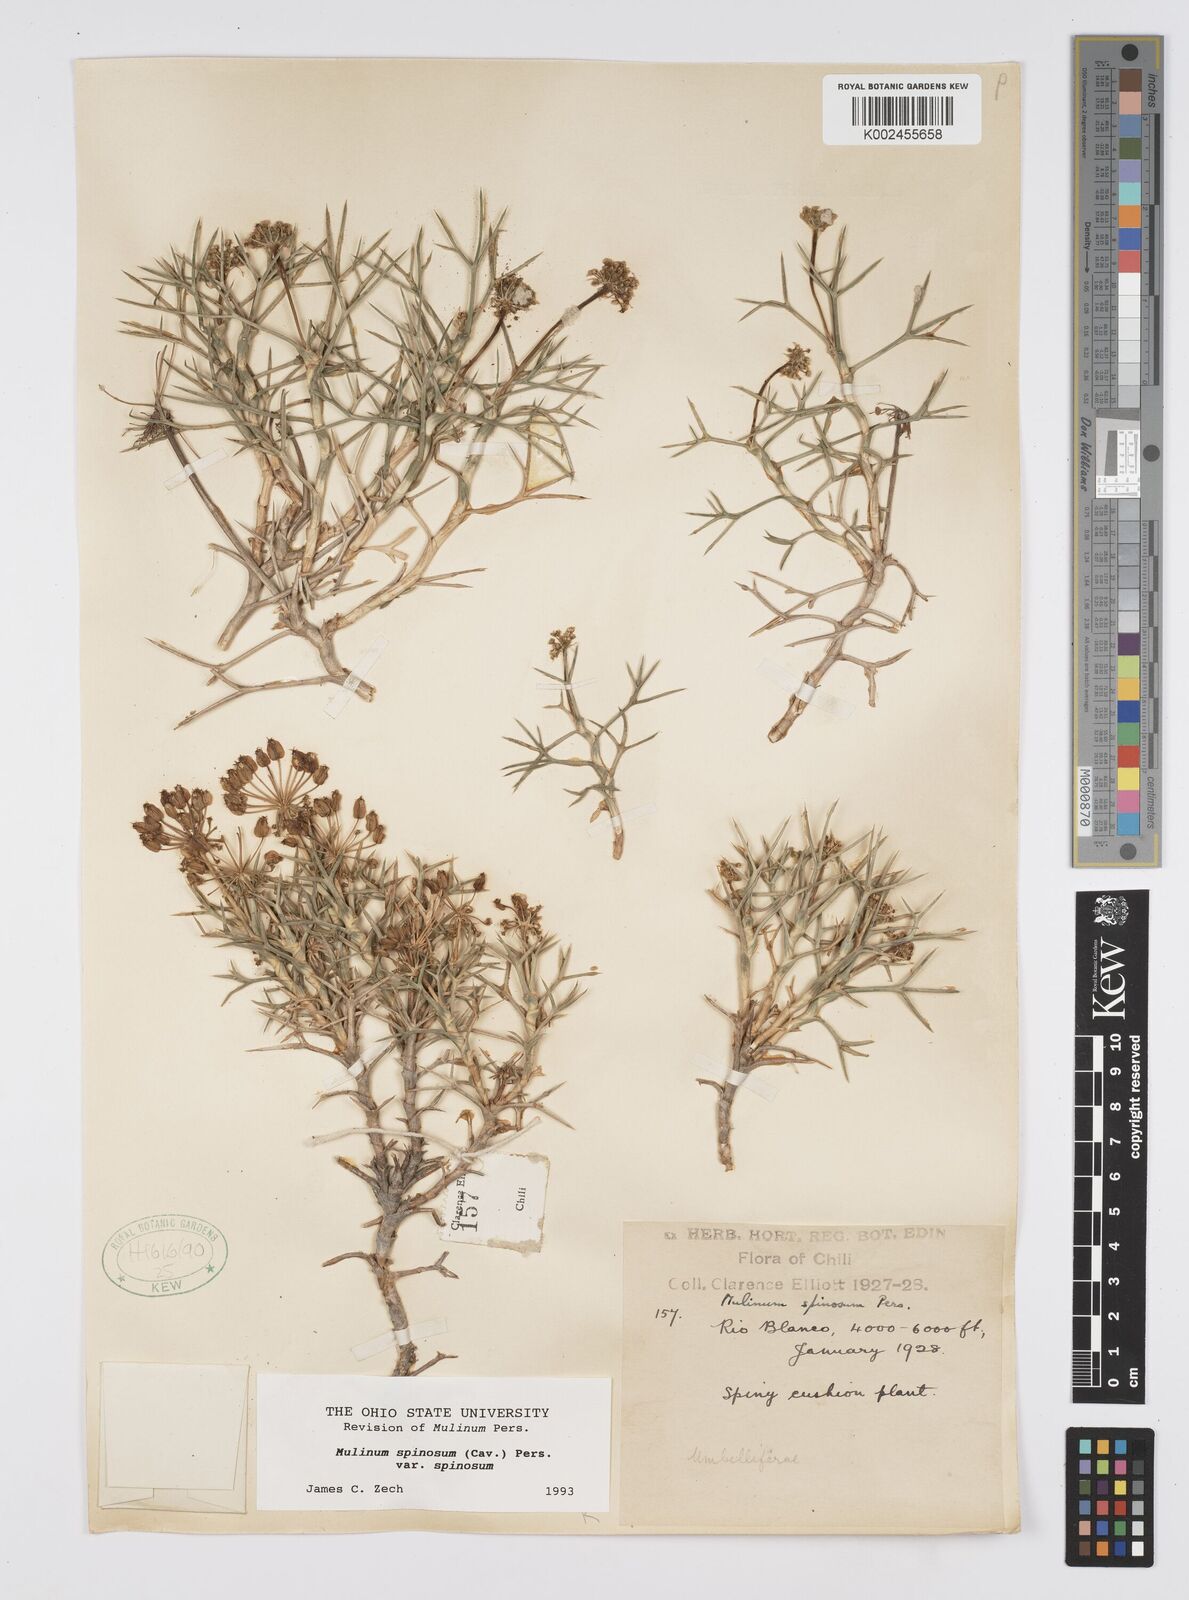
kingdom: Plantae
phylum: Tracheophyta
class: Magnoliopsida
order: Apiales
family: Apiaceae
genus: Azorella
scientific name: Azorella prolifera
